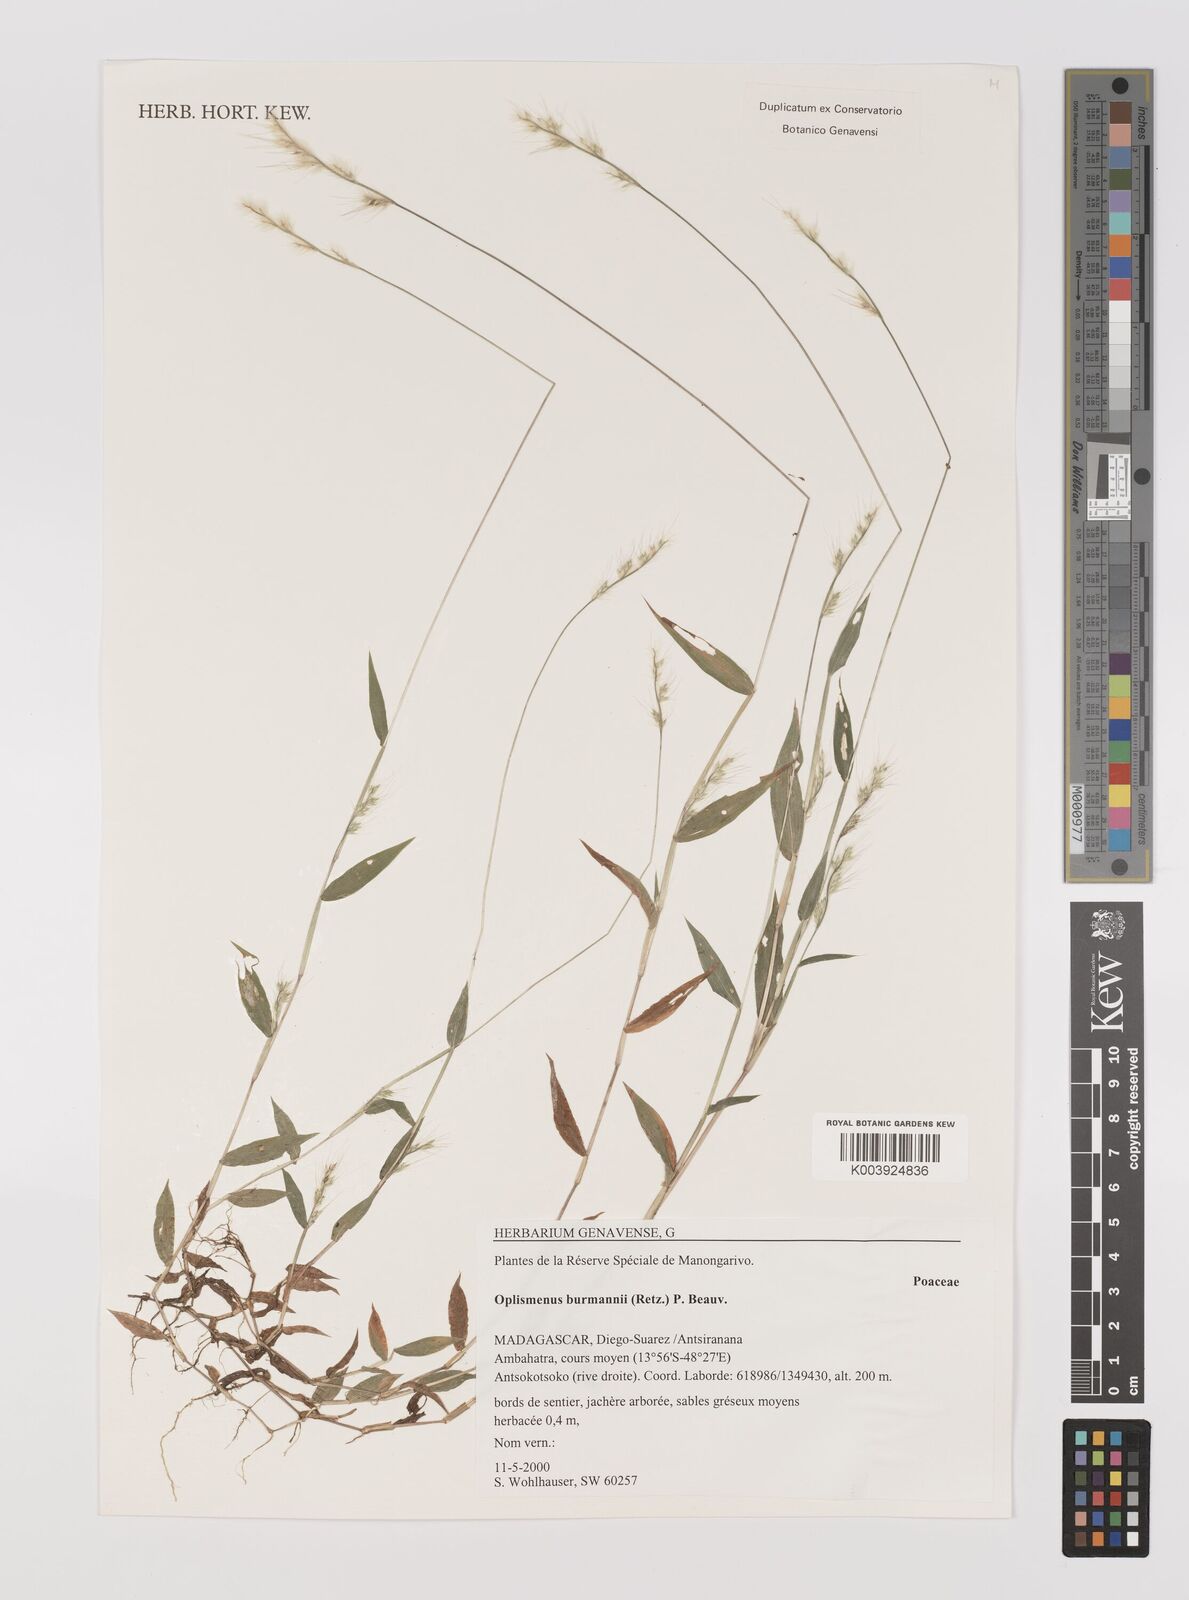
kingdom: Plantae
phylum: Tracheophyta
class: Liliopsida
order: Poales
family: Poaceae
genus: Oplismenus
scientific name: Oplismenus burmanni
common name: Burmann's basketgrass
